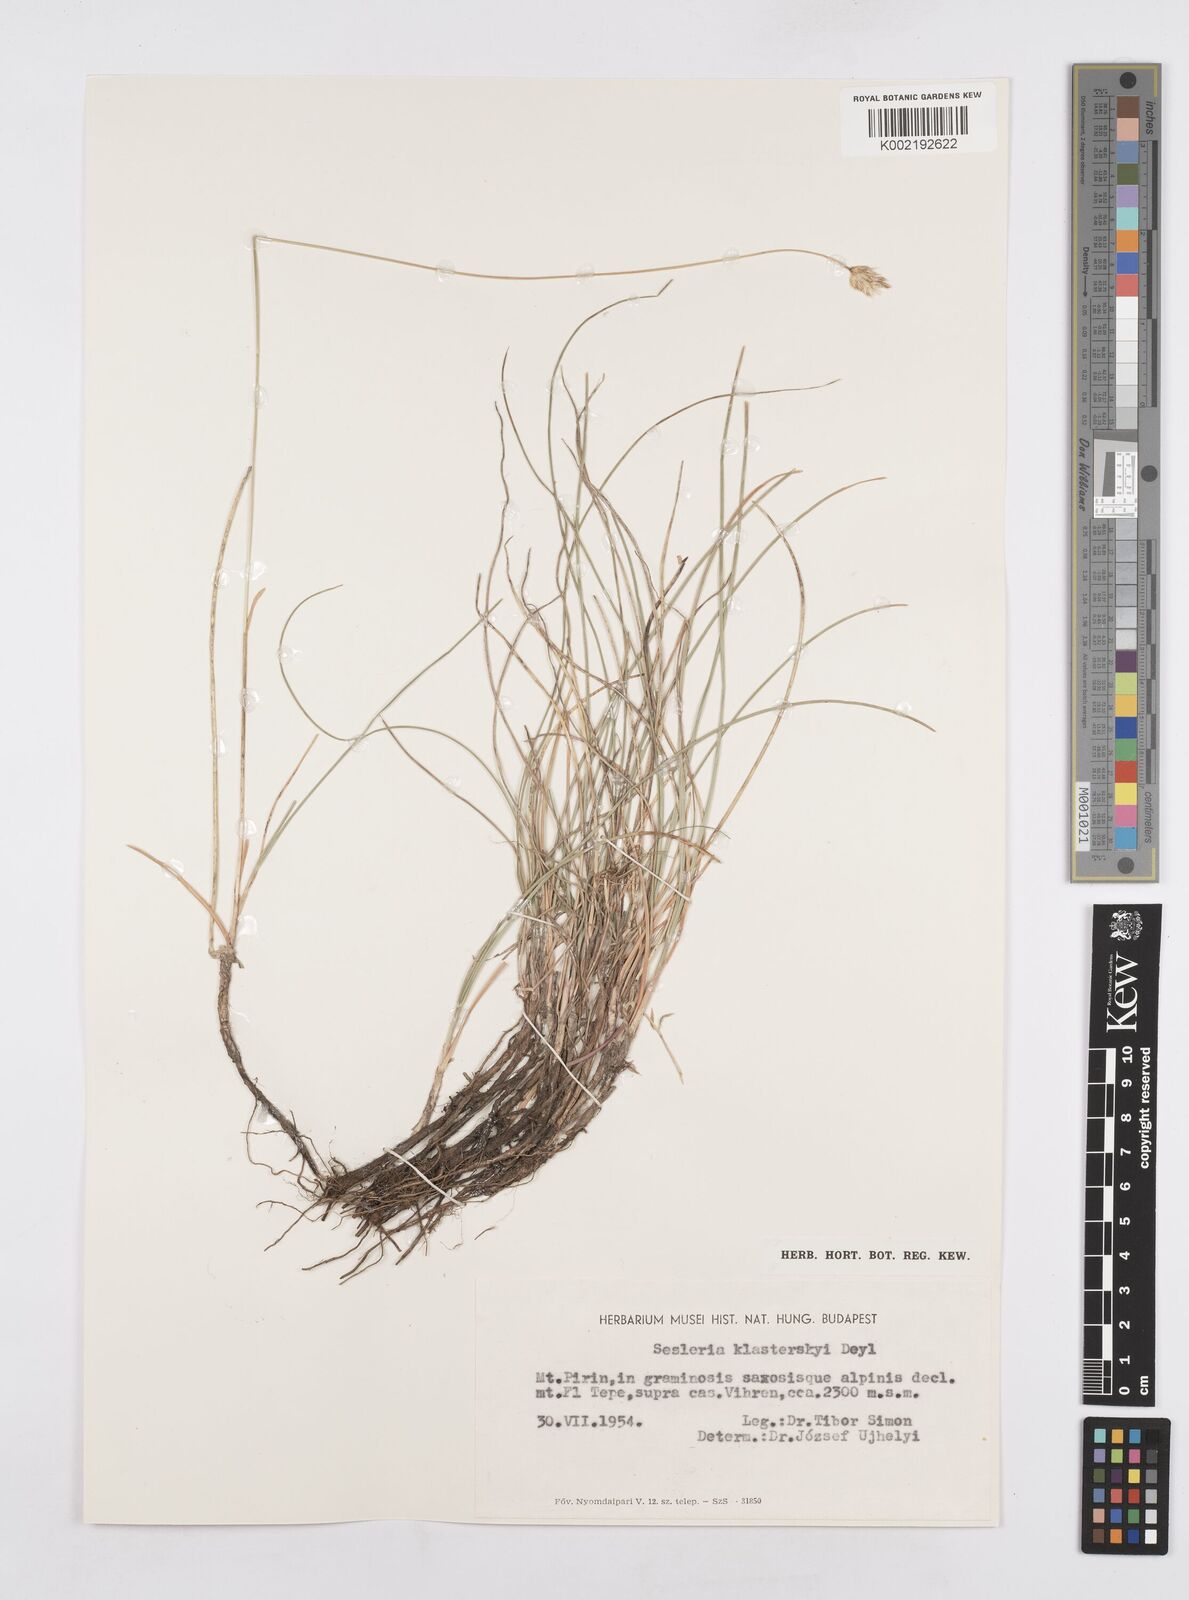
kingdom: Plantae
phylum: Tracheophyta
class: Liliopsida
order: Poales
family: Poaceae
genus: Sesleria
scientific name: Sesleria korabensis
